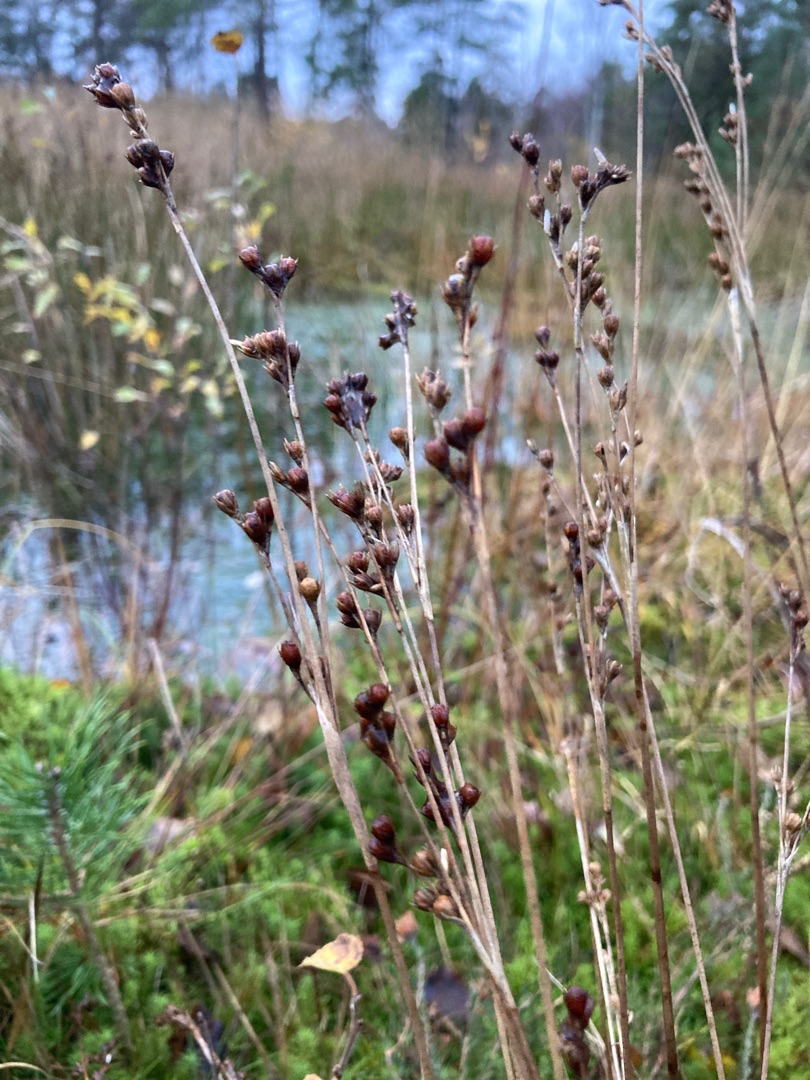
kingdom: Plantae
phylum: Tracheophyta
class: Liliopsida
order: Poales
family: Juncaceae
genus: Juncus
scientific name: Juncus squarrosus
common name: Børste-siv
